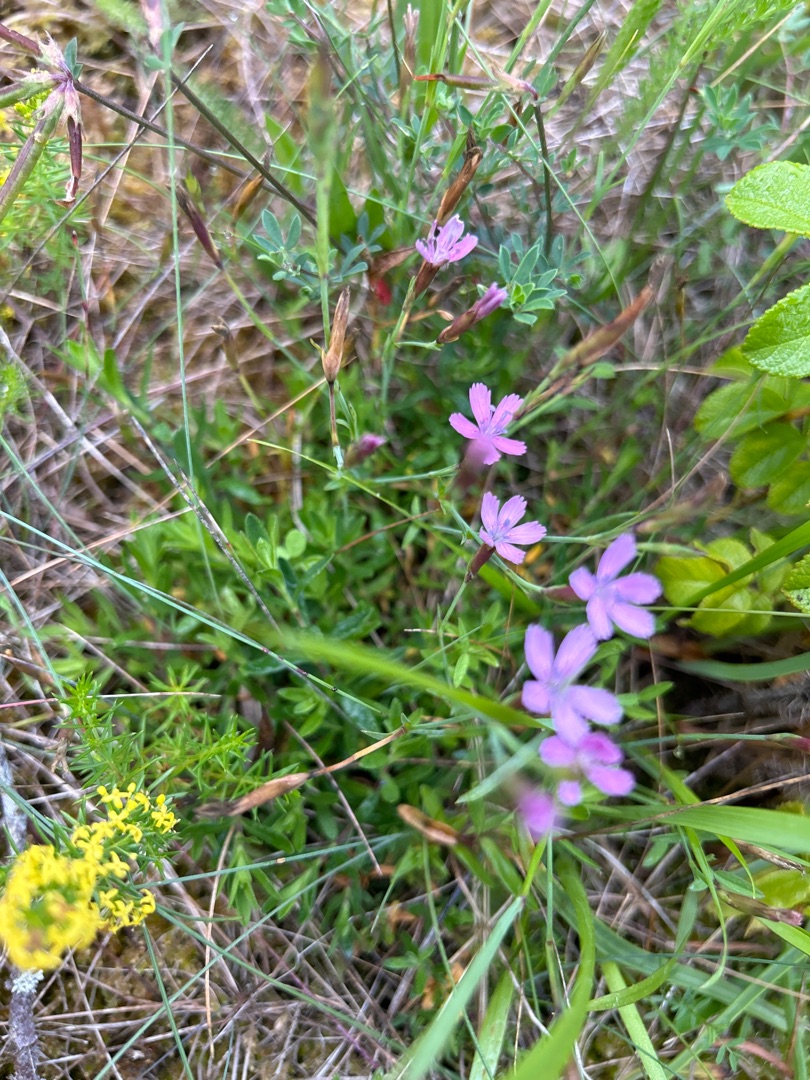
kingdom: Plantae
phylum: Tracheophyta
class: Magnoliopsida
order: Caryophyllales
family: Caryophyllaceae
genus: Dianthus
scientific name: Dianthus deltoides
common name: Bakke-nellike
